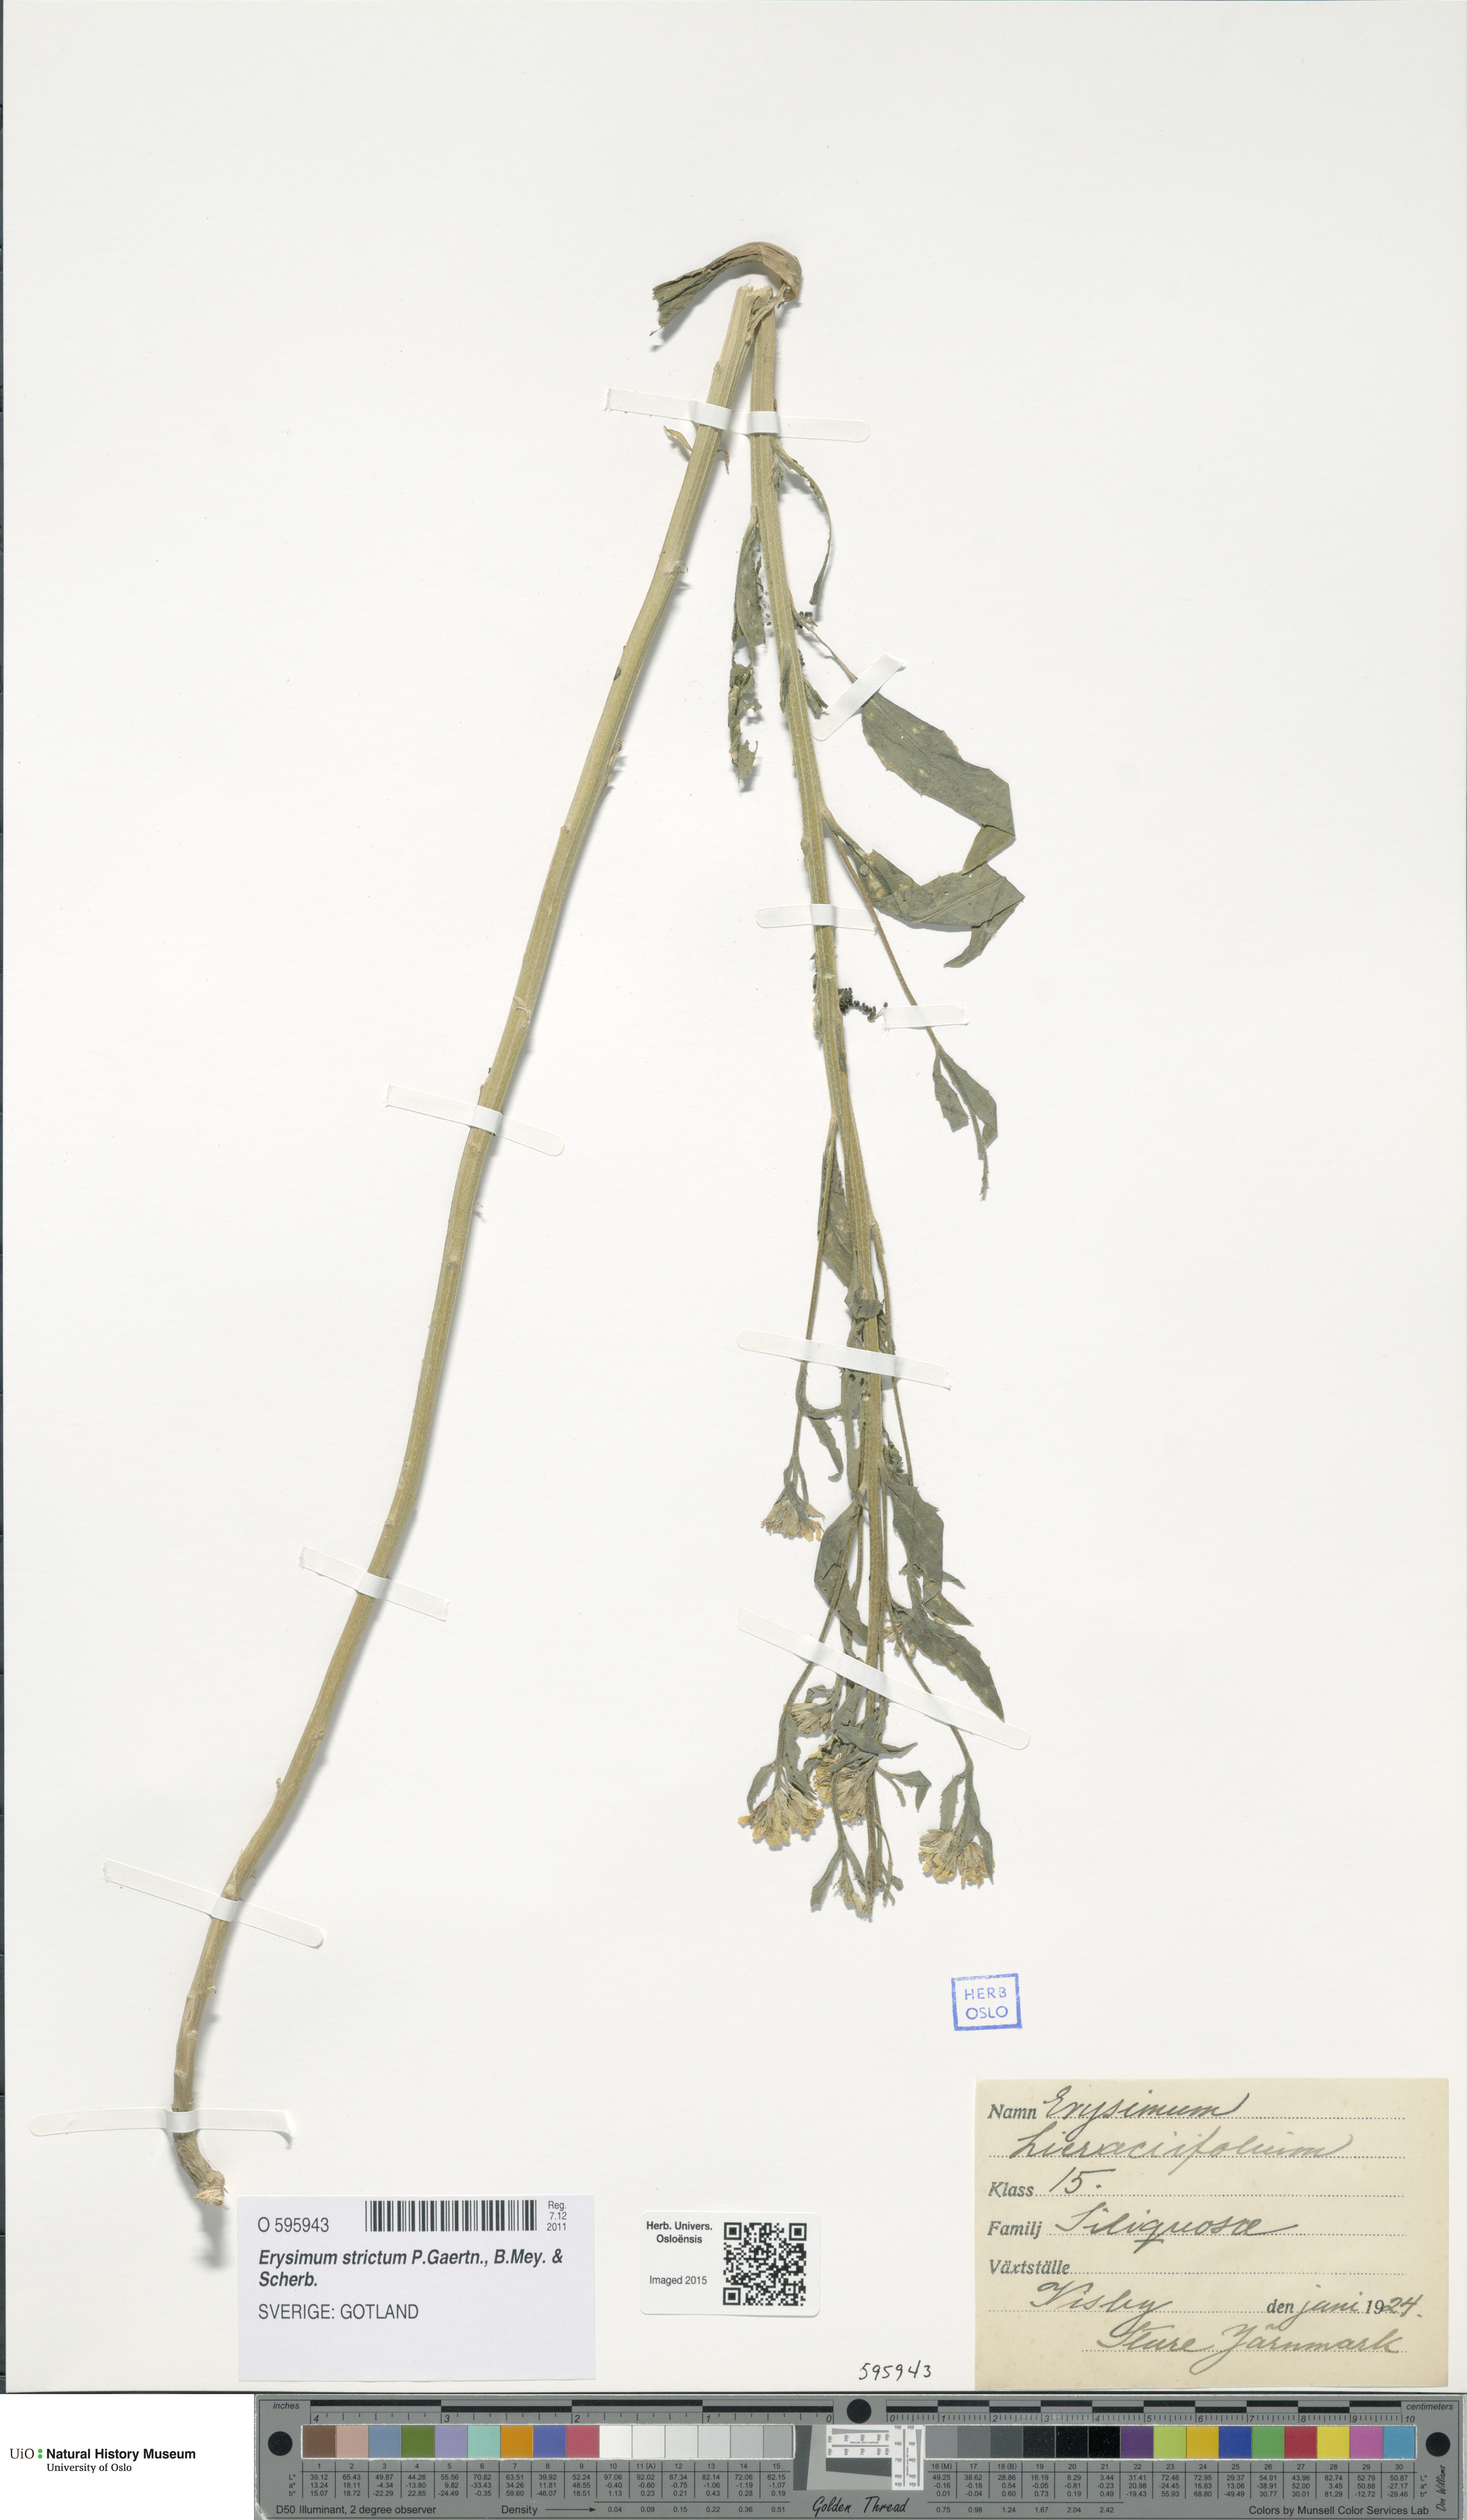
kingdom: Plantae
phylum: Tracheophyta
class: Magnoliopsida
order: Brassicales
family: Brassicaceae
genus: Erysimum
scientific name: Erysimum hieraciifolium
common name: European wallflower
